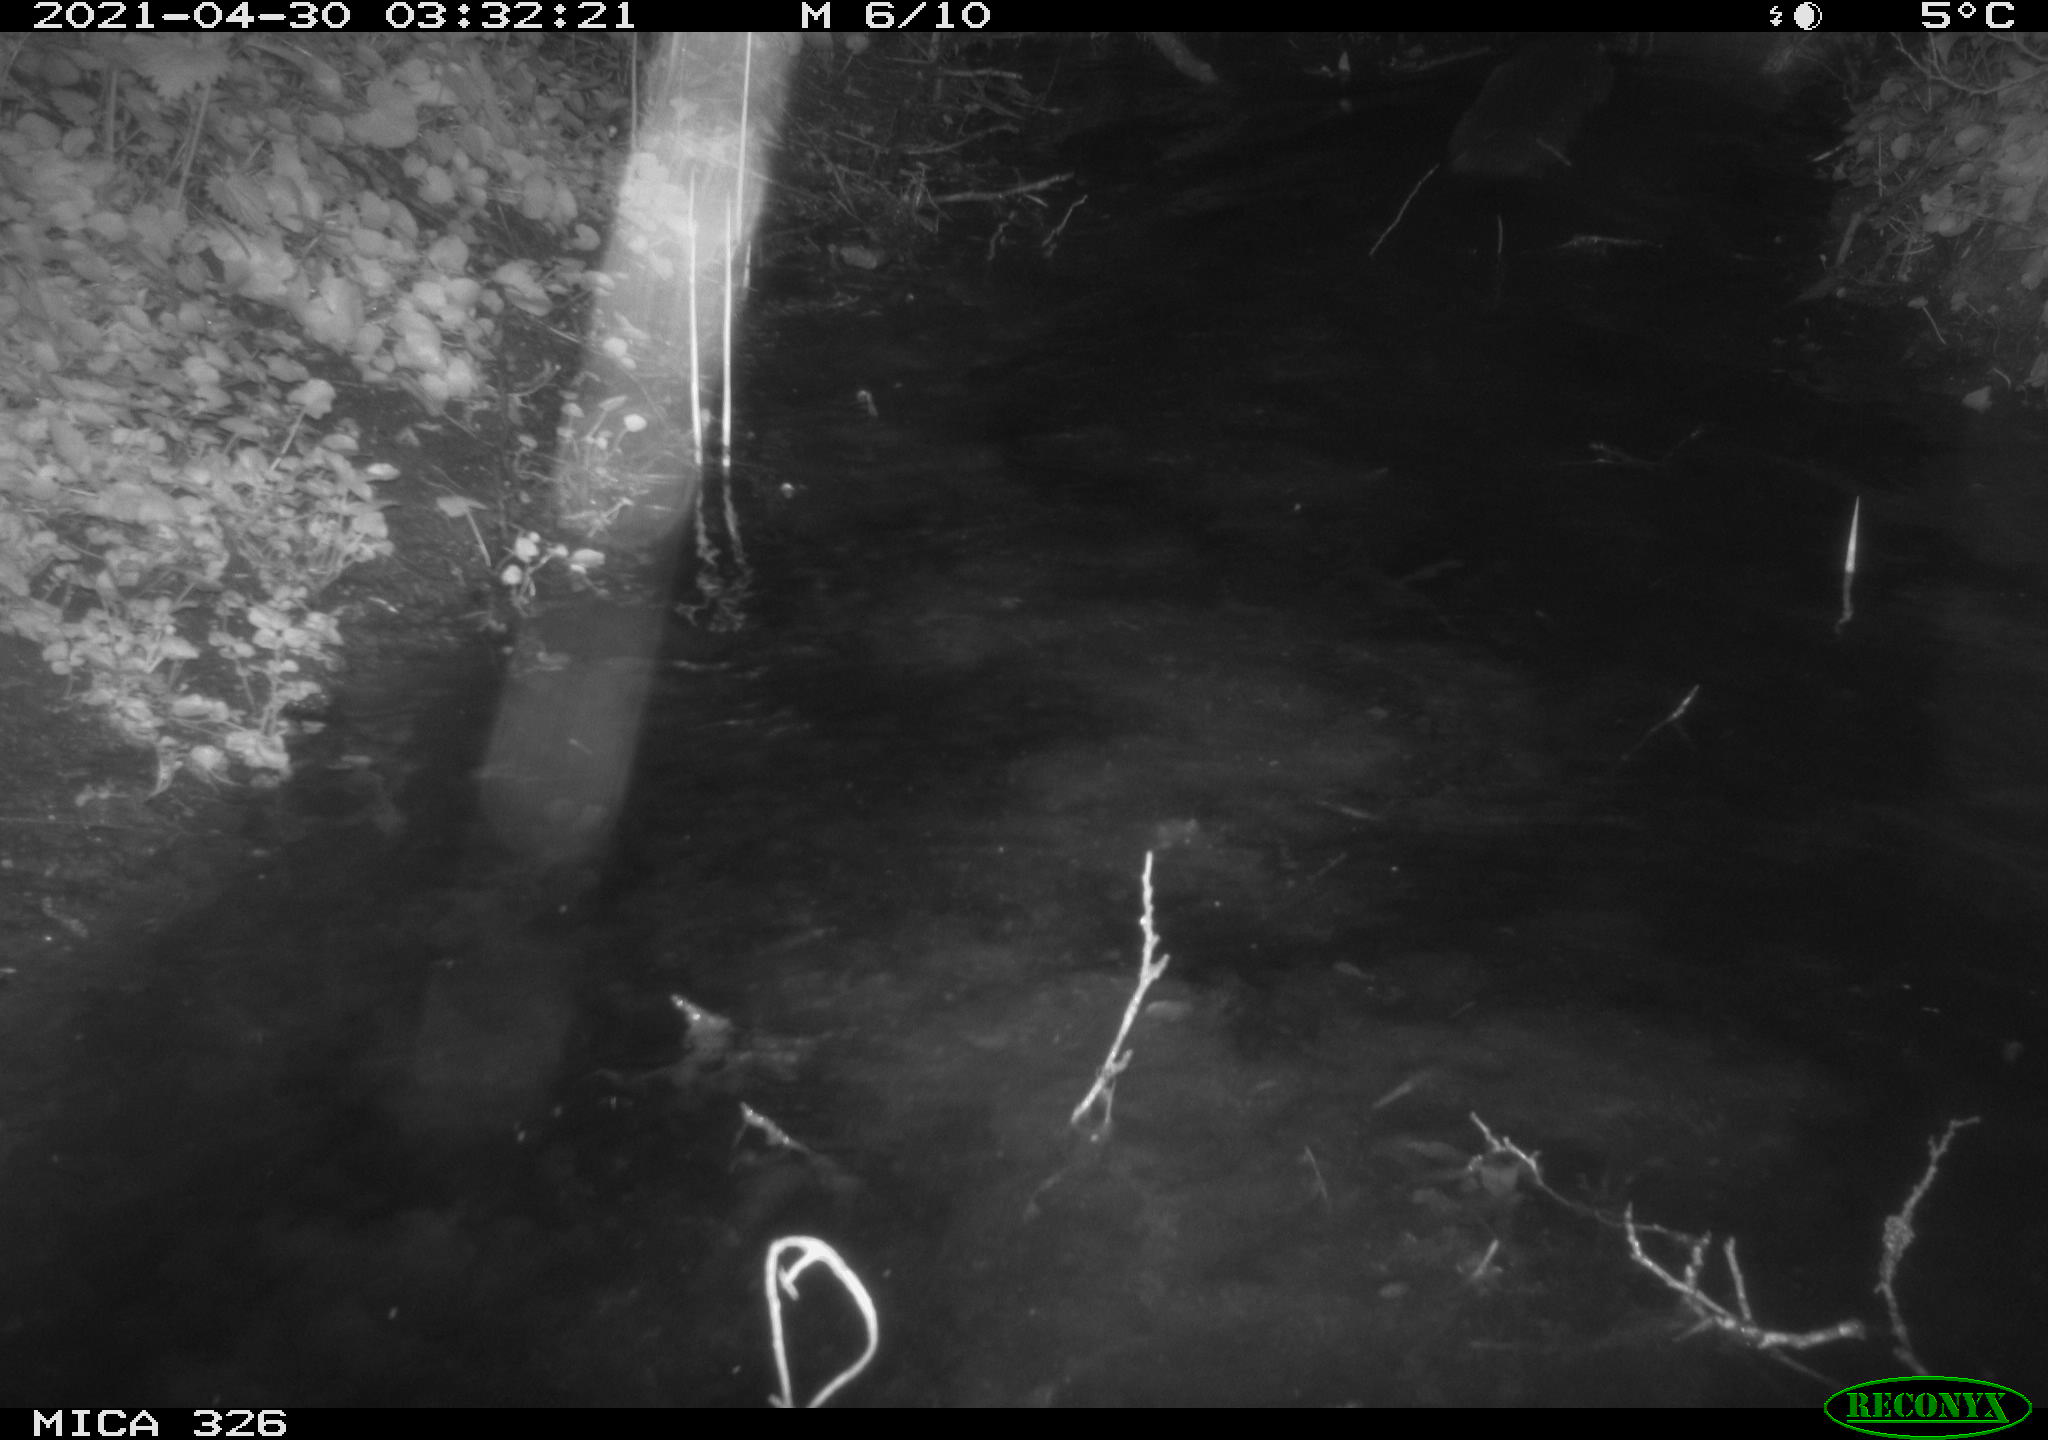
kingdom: Animalia
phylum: Chordata
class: Mammalia
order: Carnivora
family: Mustelidae
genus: Lutra
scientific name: Lutra lutra
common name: European otter
